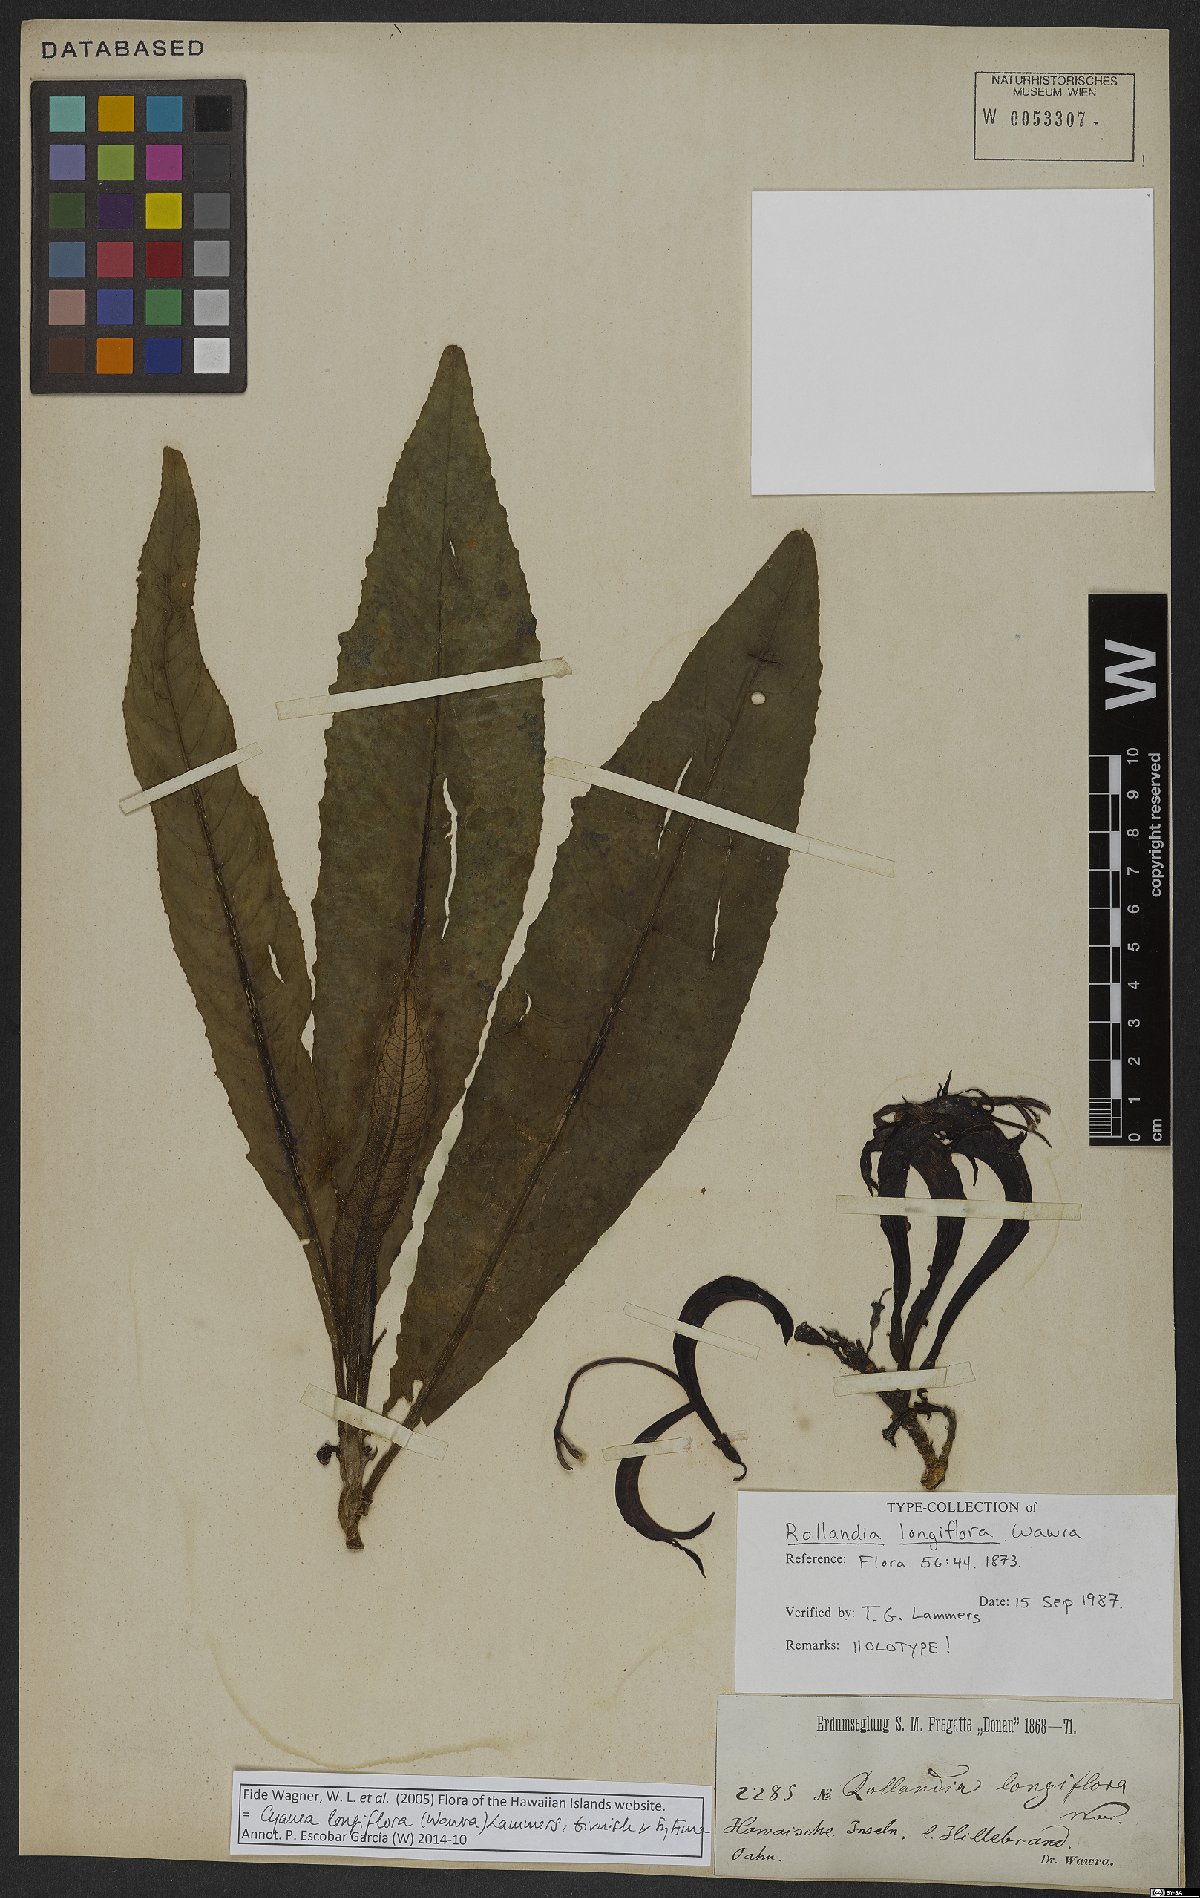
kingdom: Plantae
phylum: Tracheophyta
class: Magnoliopsida
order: Asterales
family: Campanulaceae
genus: Cyanea
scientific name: Cyanea longiflora
